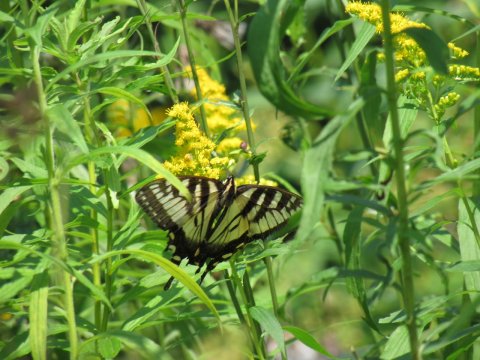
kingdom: Animalia
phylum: Arthropoda
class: Insecta
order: Lepidoptera
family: Papilionidae
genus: Pterourus
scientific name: Pterourus
